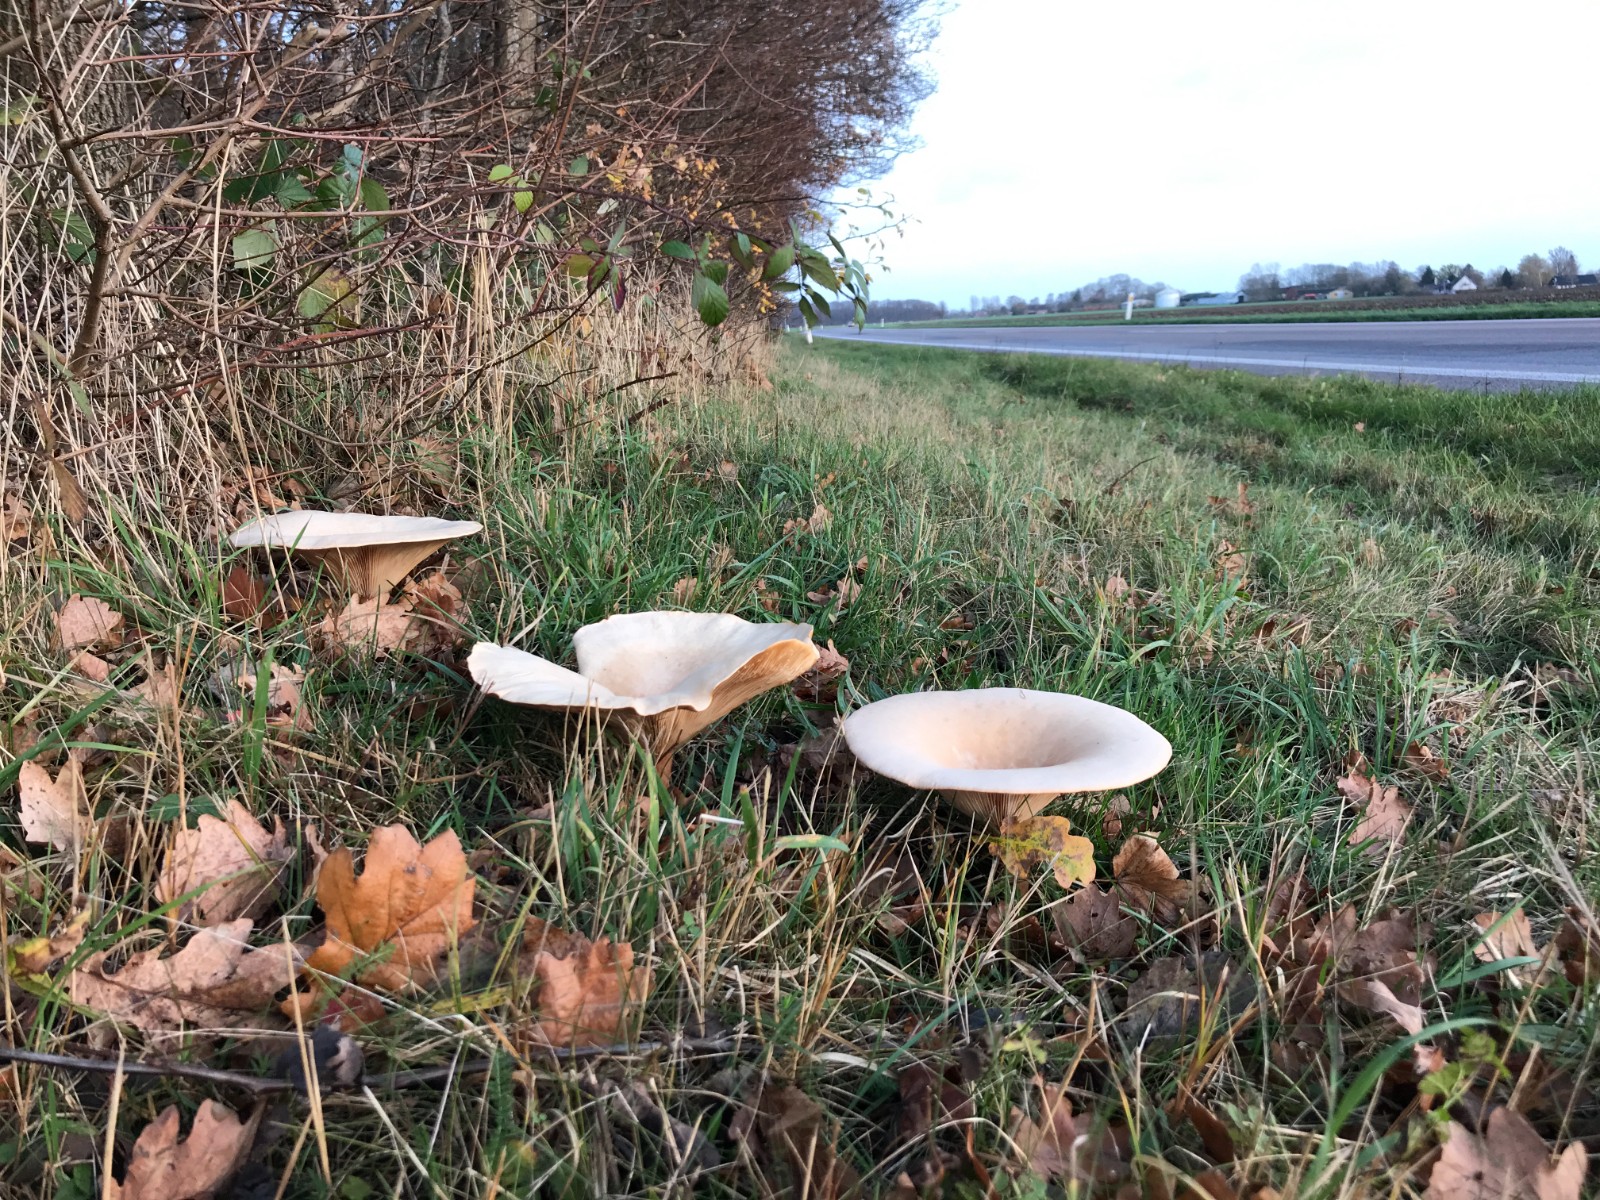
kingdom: Fungi
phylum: Basidiomycota
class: Agaricomycetes
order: Agaricales
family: Tricholomataceae
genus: Infundibulicybe
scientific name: Infundibulicybe geotropa
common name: stor tragthat
